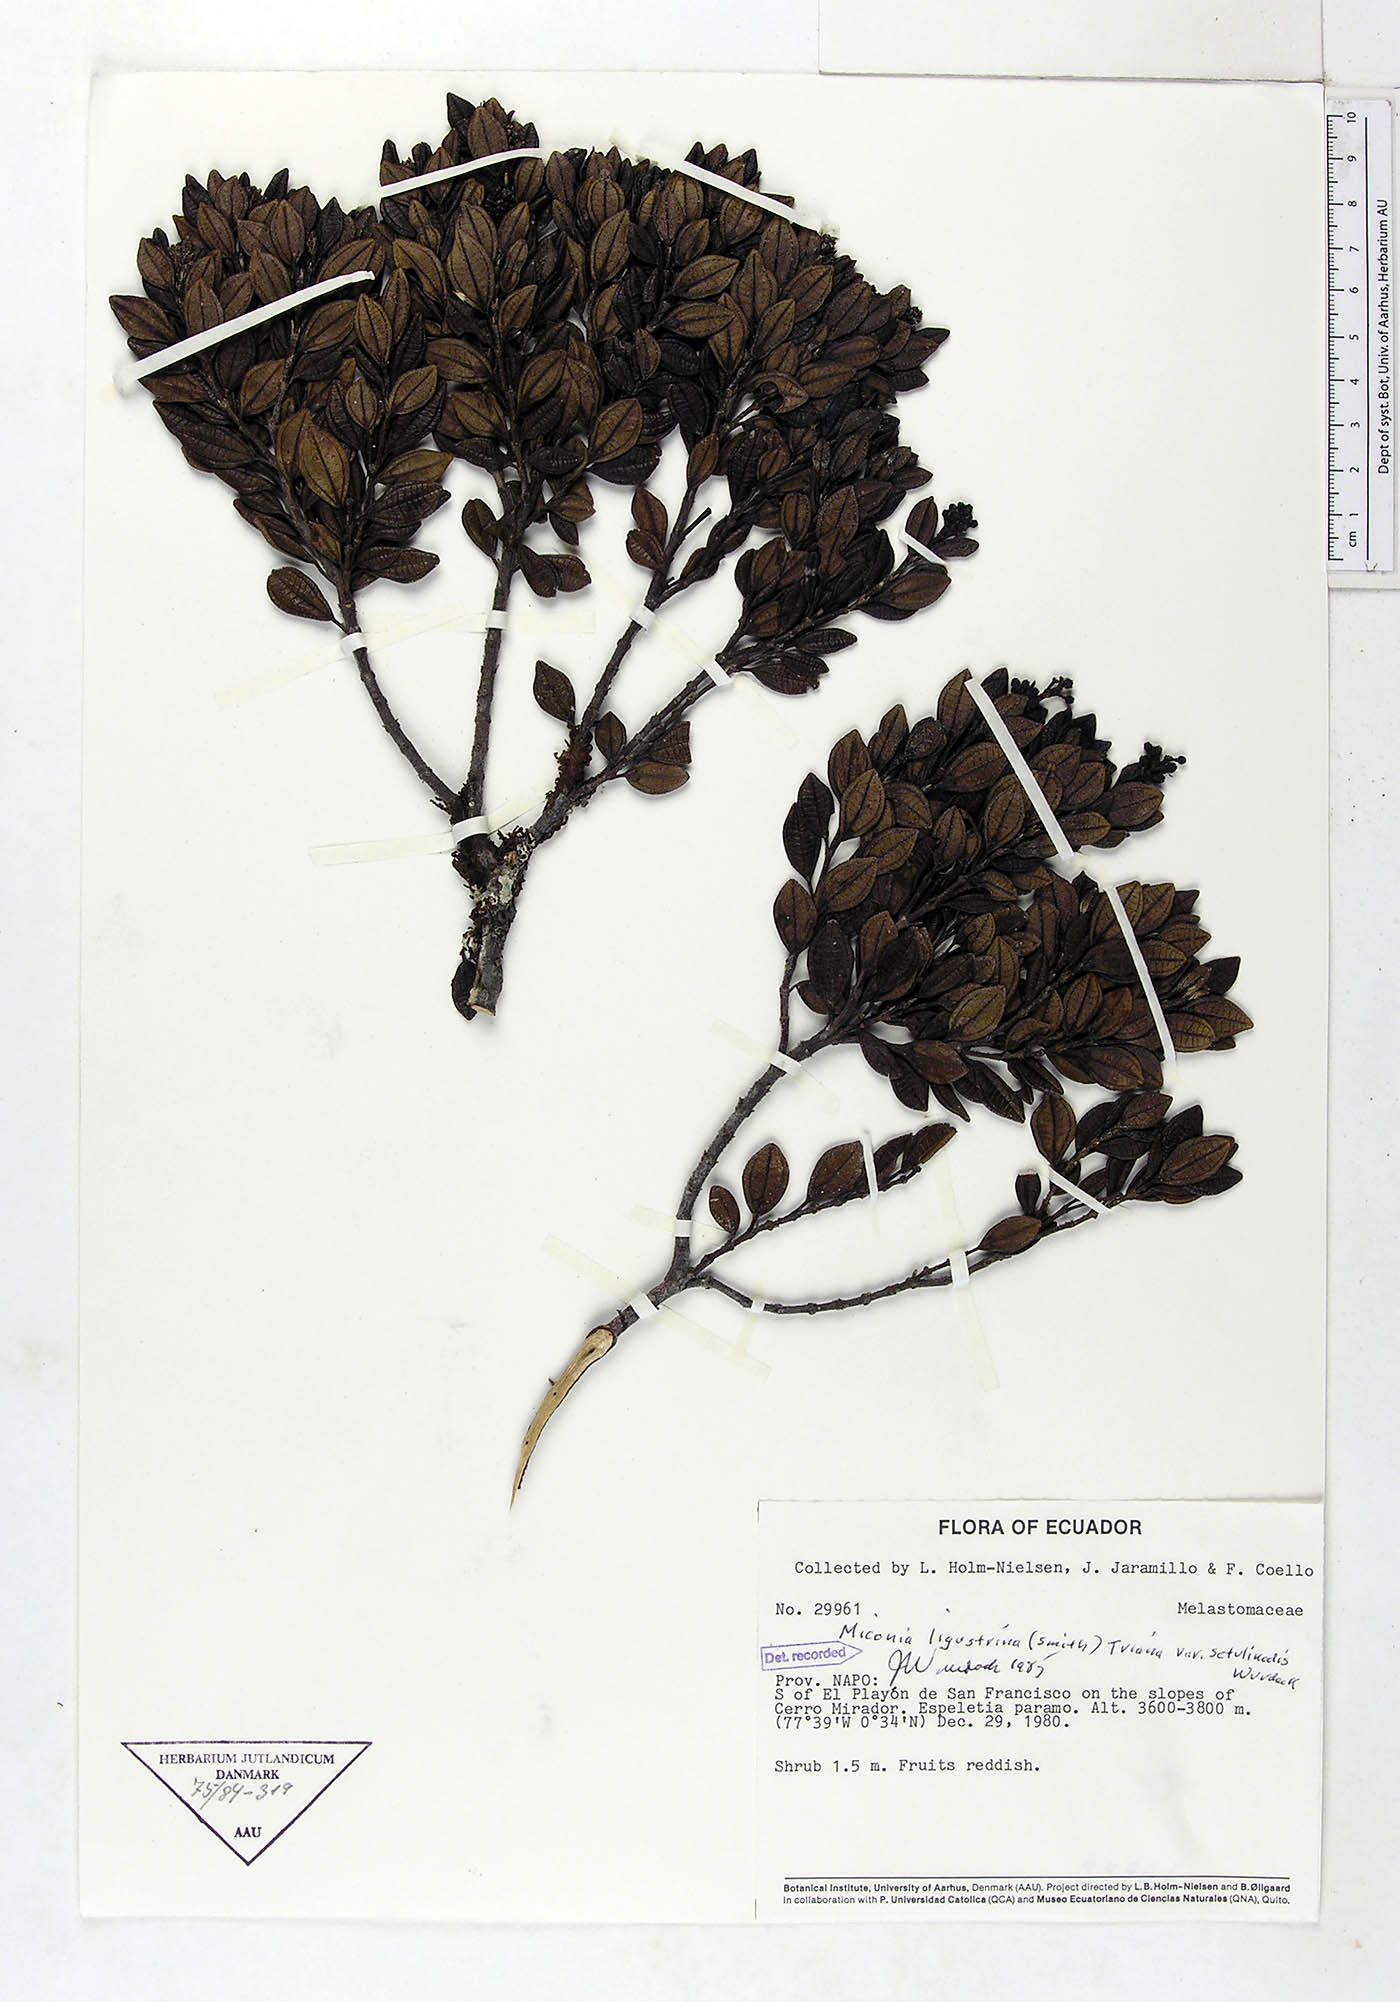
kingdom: Plantae
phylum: Tracheophyta
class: Magnoliopsida
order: Myrtales
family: Melastomataceae
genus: Miconia
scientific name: Miconia ligustrina
